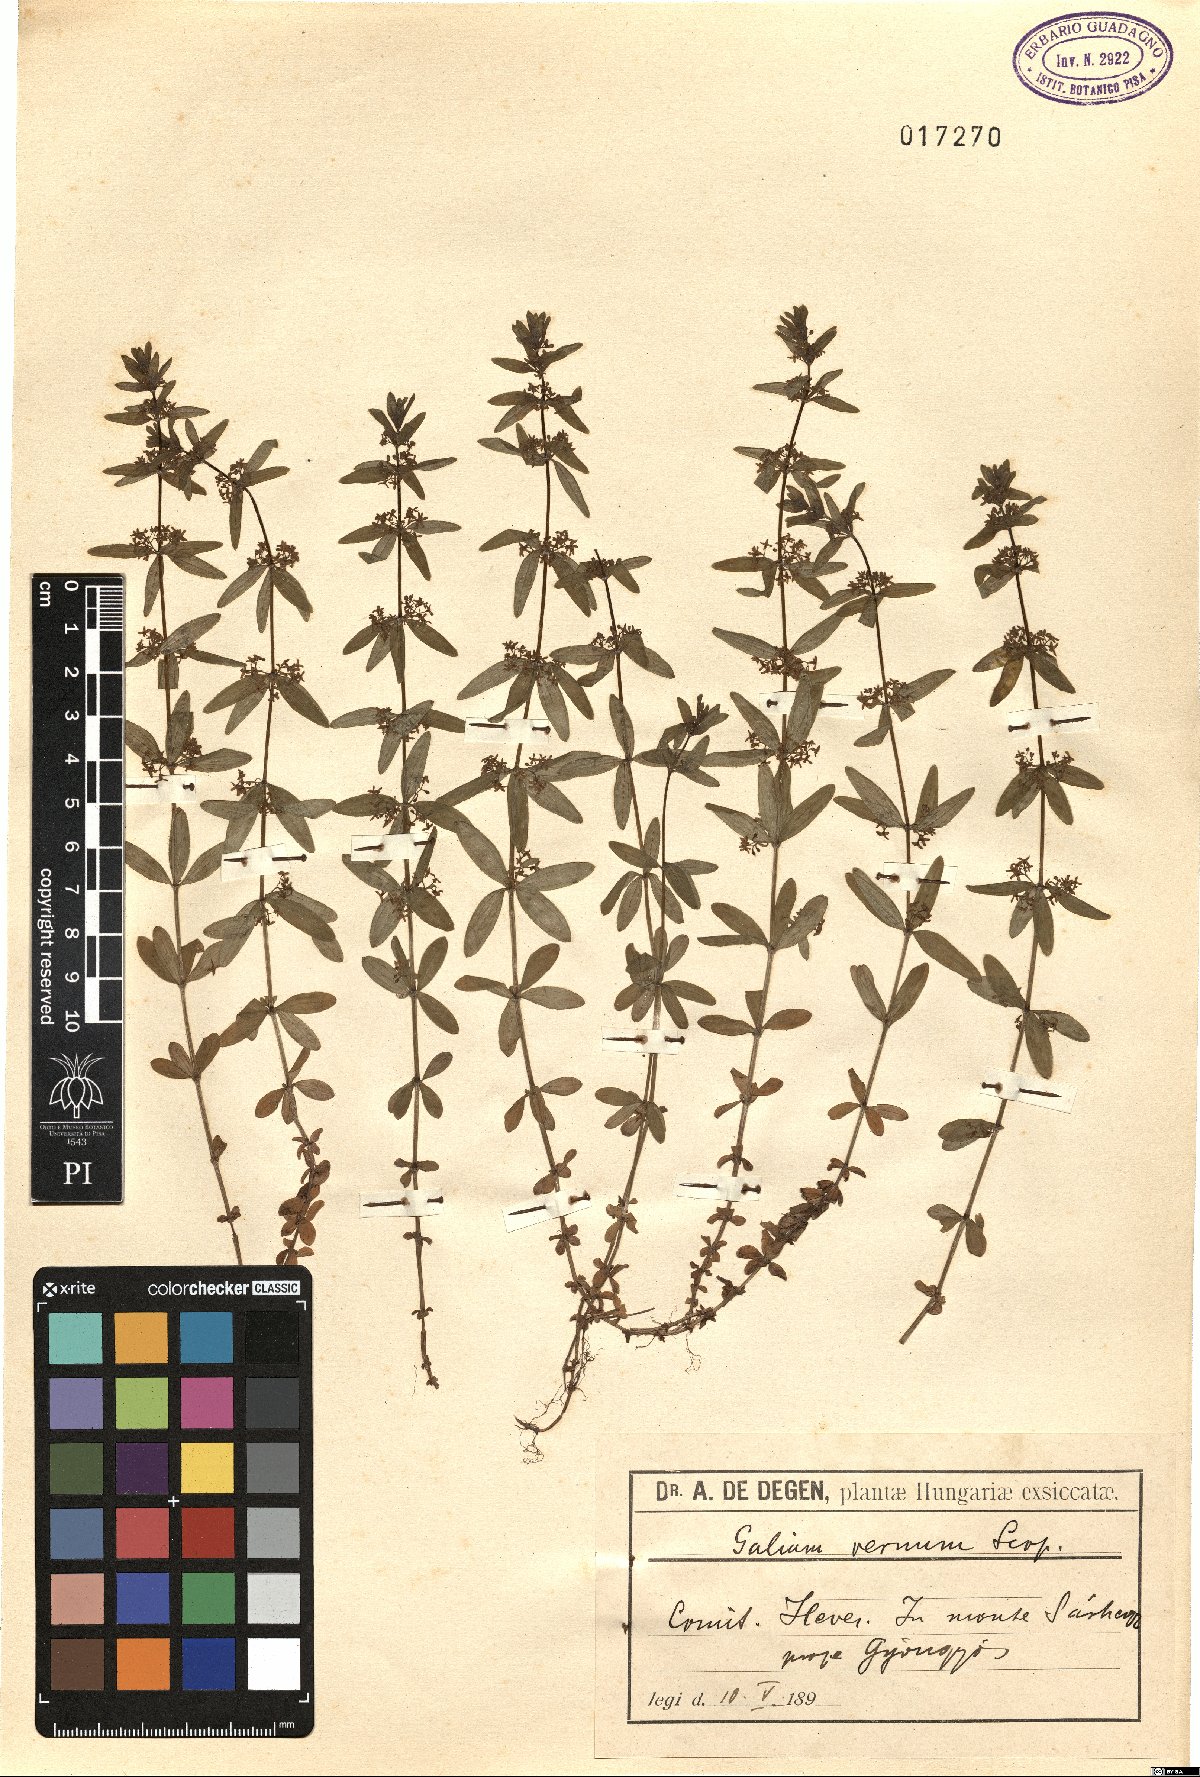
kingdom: Plantae
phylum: Tracheophyta
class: Magnoliopsida
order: Gentianales
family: Rubiaceae
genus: Cruciata
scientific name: Cruciata glabra
